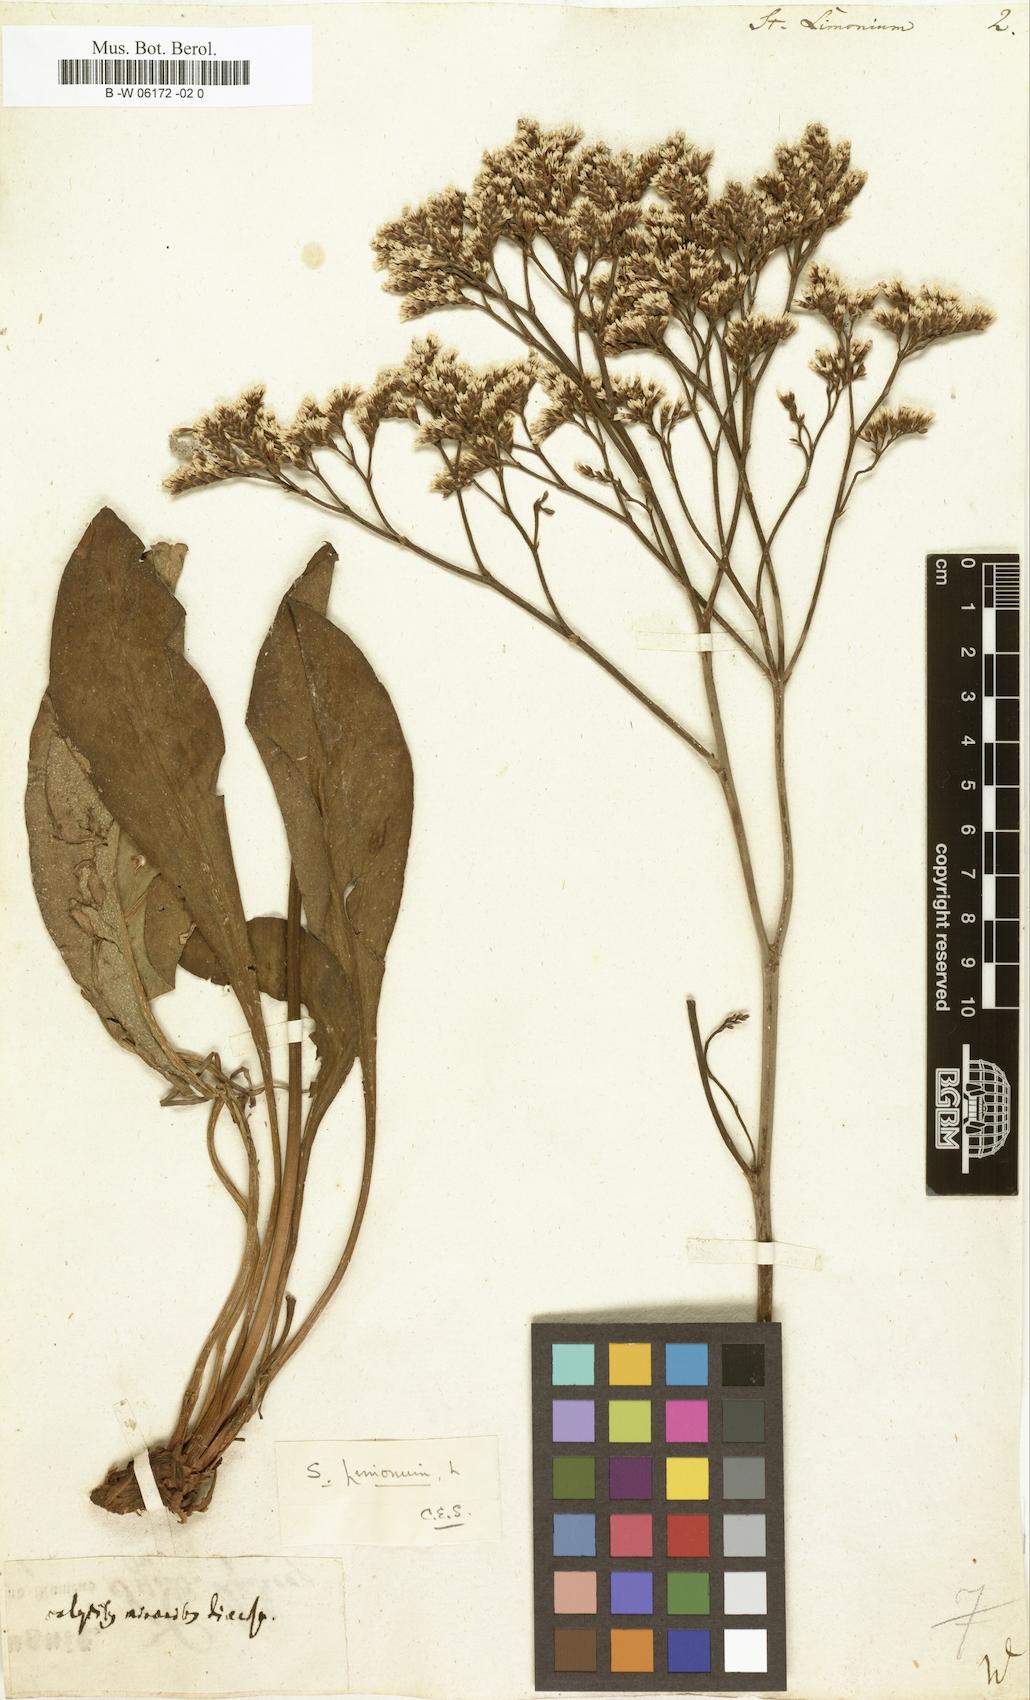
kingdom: Plantae
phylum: Tracheophyta
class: Magnoliopsida
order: Caryophyllales
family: Plumbaginaceae
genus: Limonium
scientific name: Limonium
